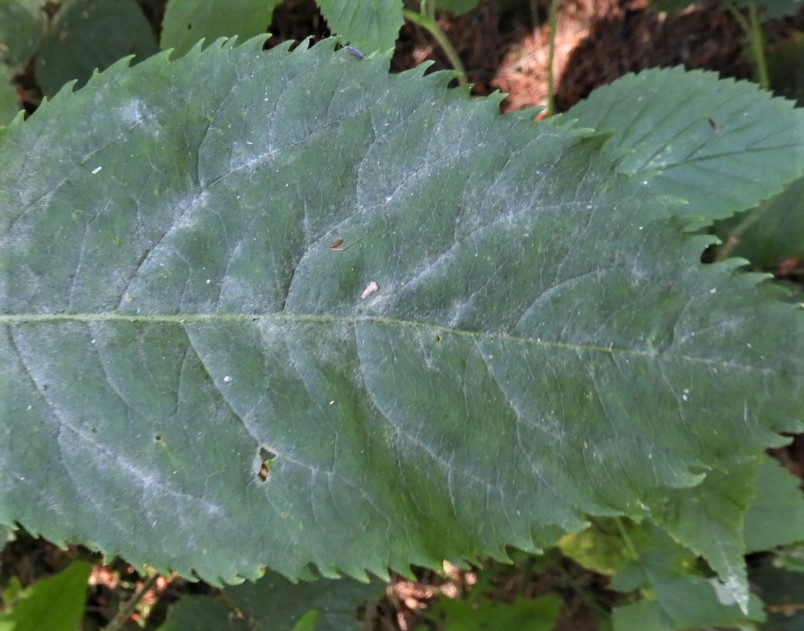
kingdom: Fungi
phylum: Ascomycota
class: Leotiomycetes
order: Helotiales
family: Erysiphaceae
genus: Erysiphe
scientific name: Erysiphe vanbruntiana
